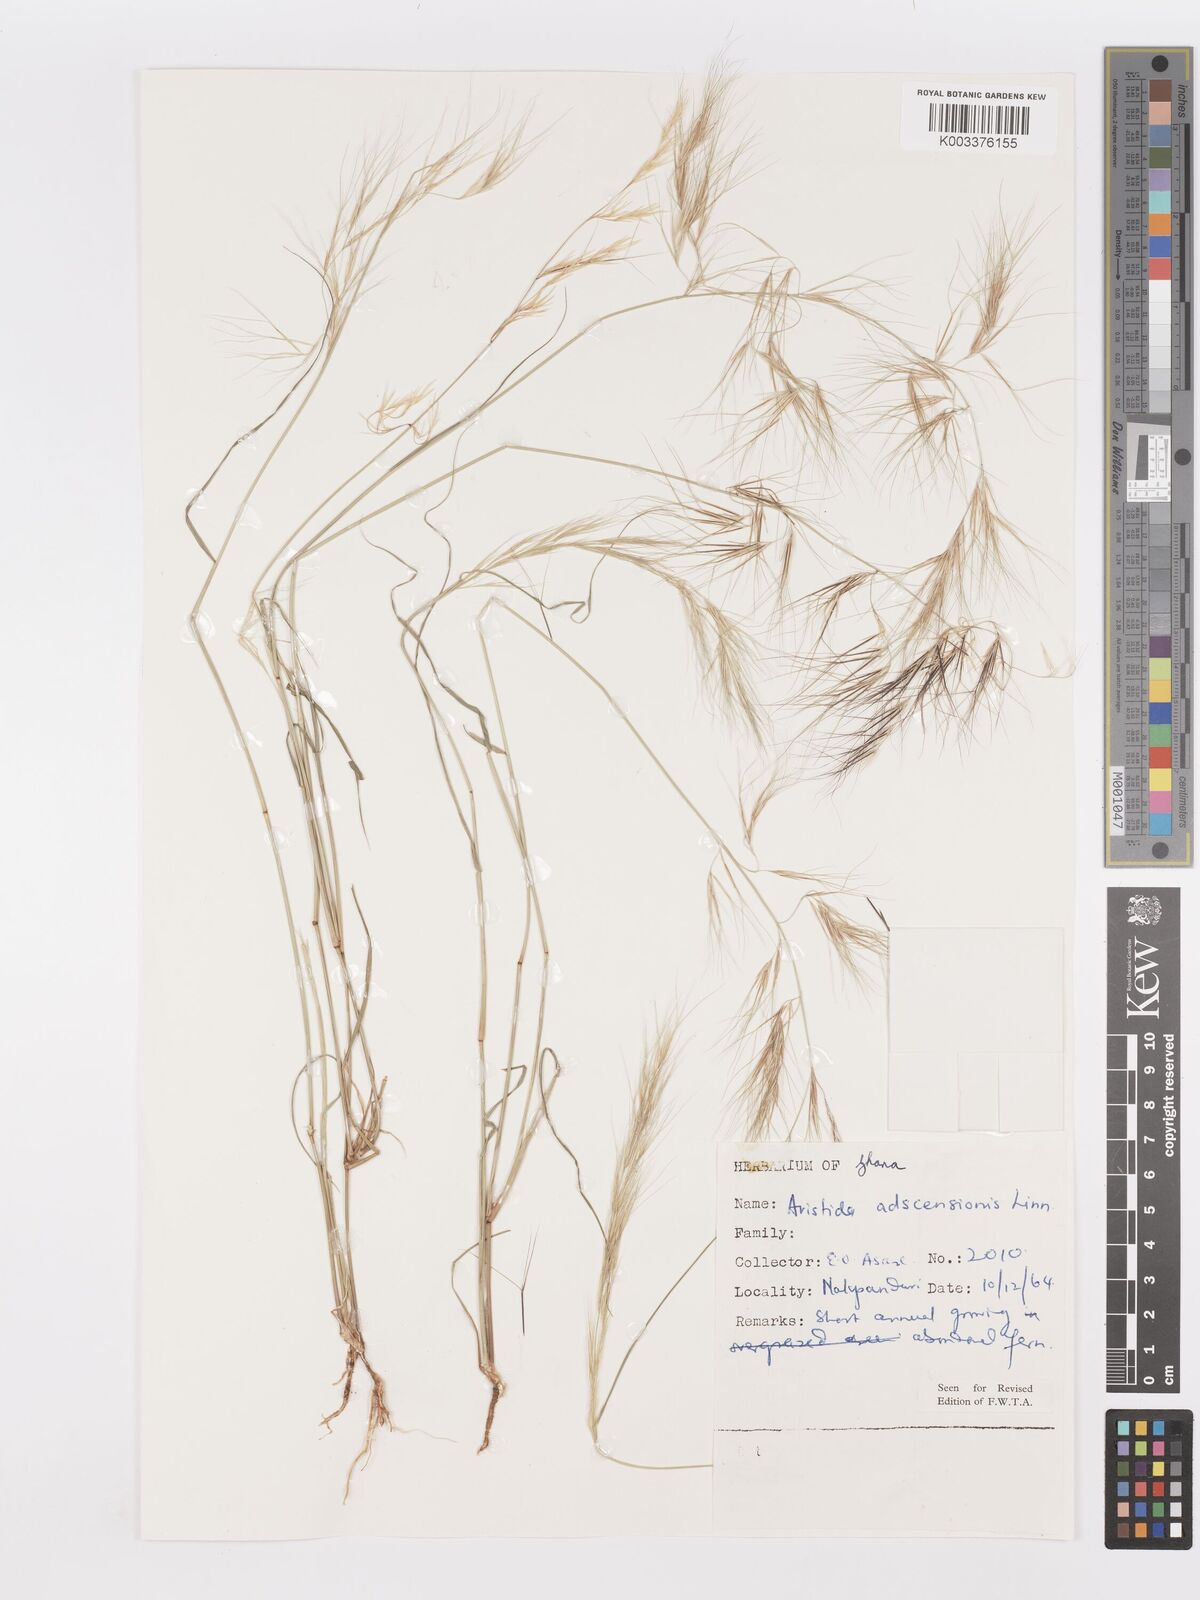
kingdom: Plantae
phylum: Tracheophyta
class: Liliopsida
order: Poales
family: Poaceae
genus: Aristida
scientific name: Aristida adscensionis
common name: Sixweeks threeawn
